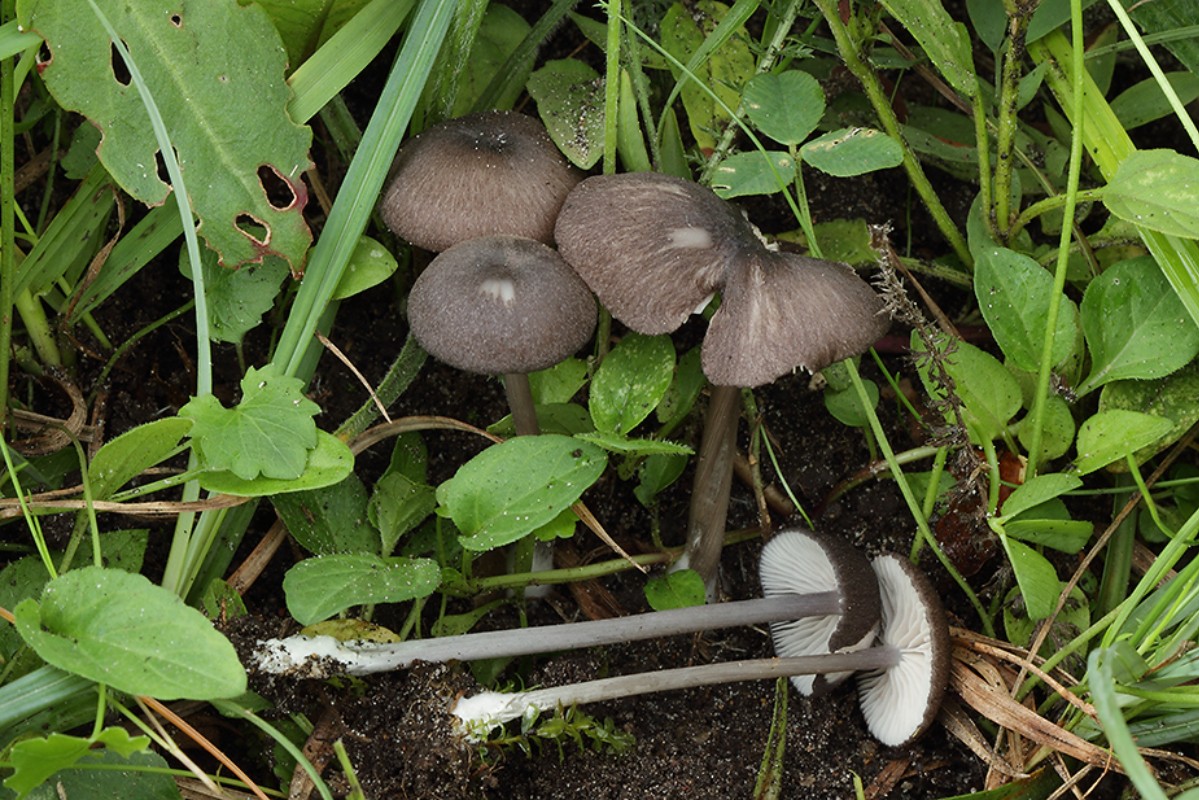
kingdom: Fungi
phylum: Basidiomycota
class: Agaricomycetes
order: Agaricales
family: Entolomataceae
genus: Entoloma
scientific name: Entoloma porphyrogriseum
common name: porfyrgrå rødblad
